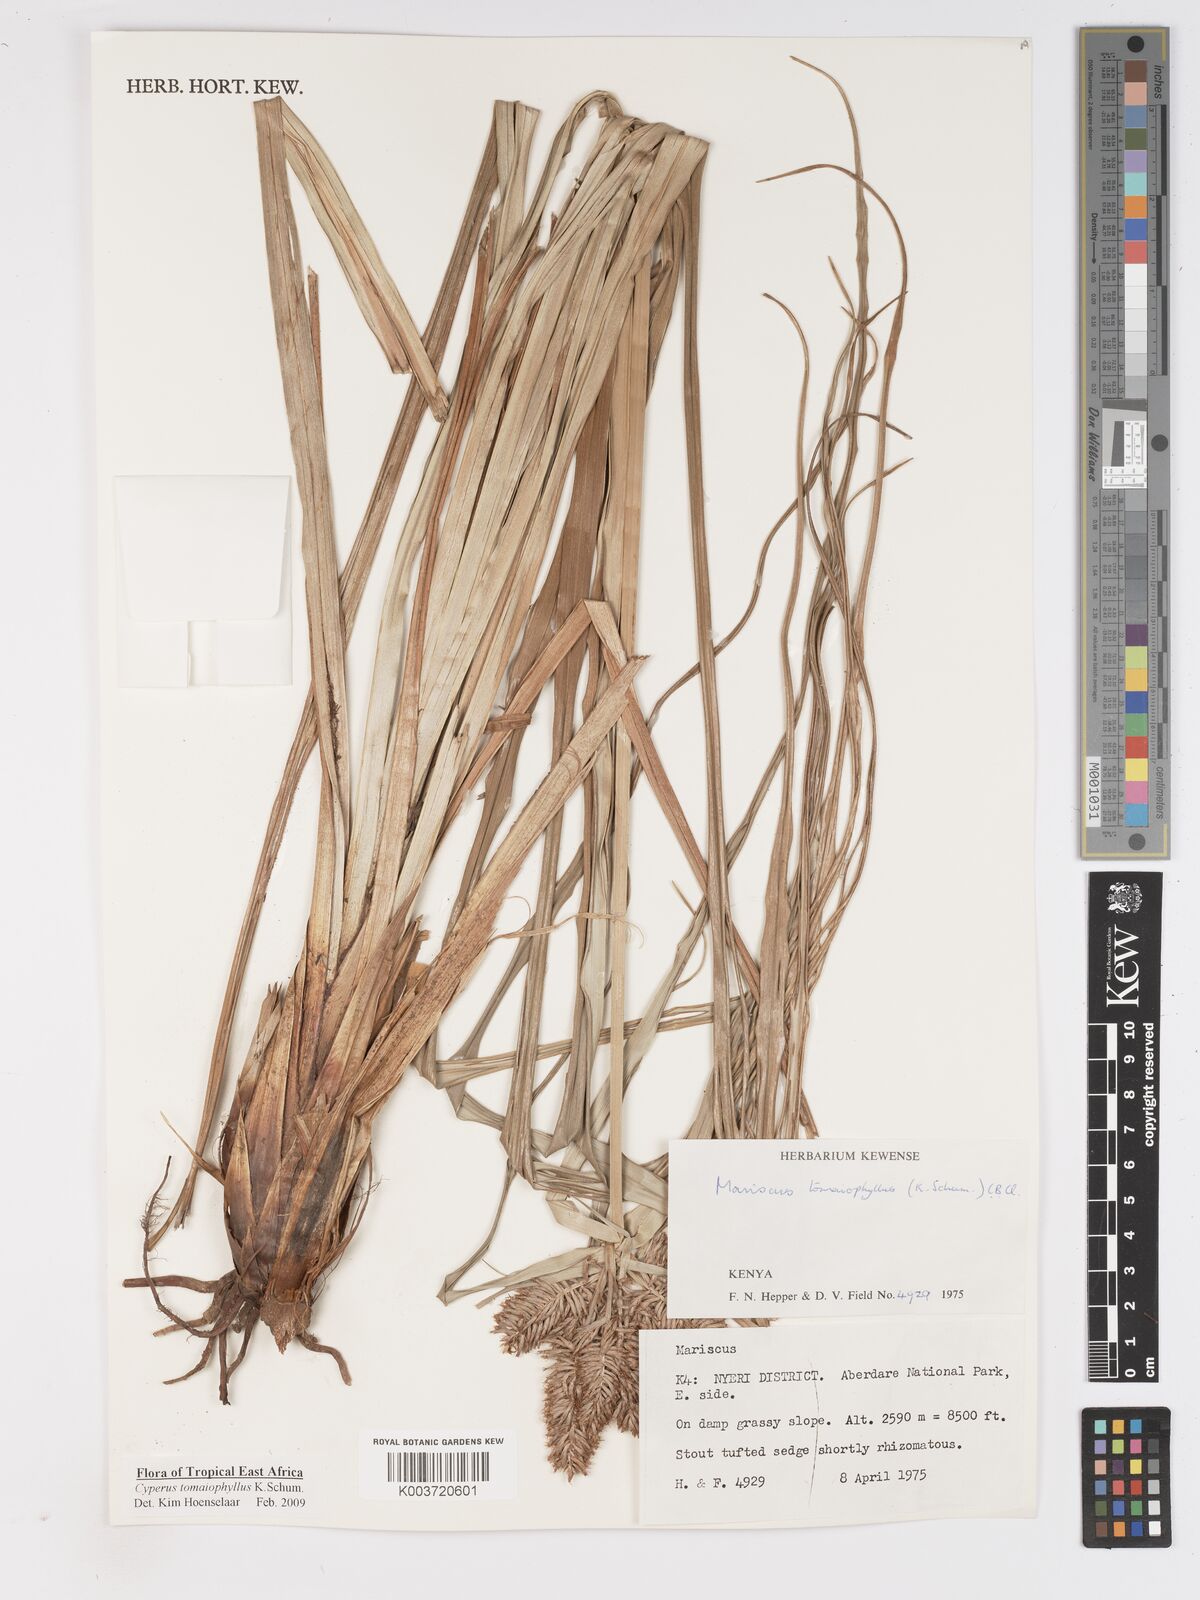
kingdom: Plantae
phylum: Tracheophyta
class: Liliopsida
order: Poales
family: Cyperaceae
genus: Cyperus
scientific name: Cyperus tomaiophyllus
